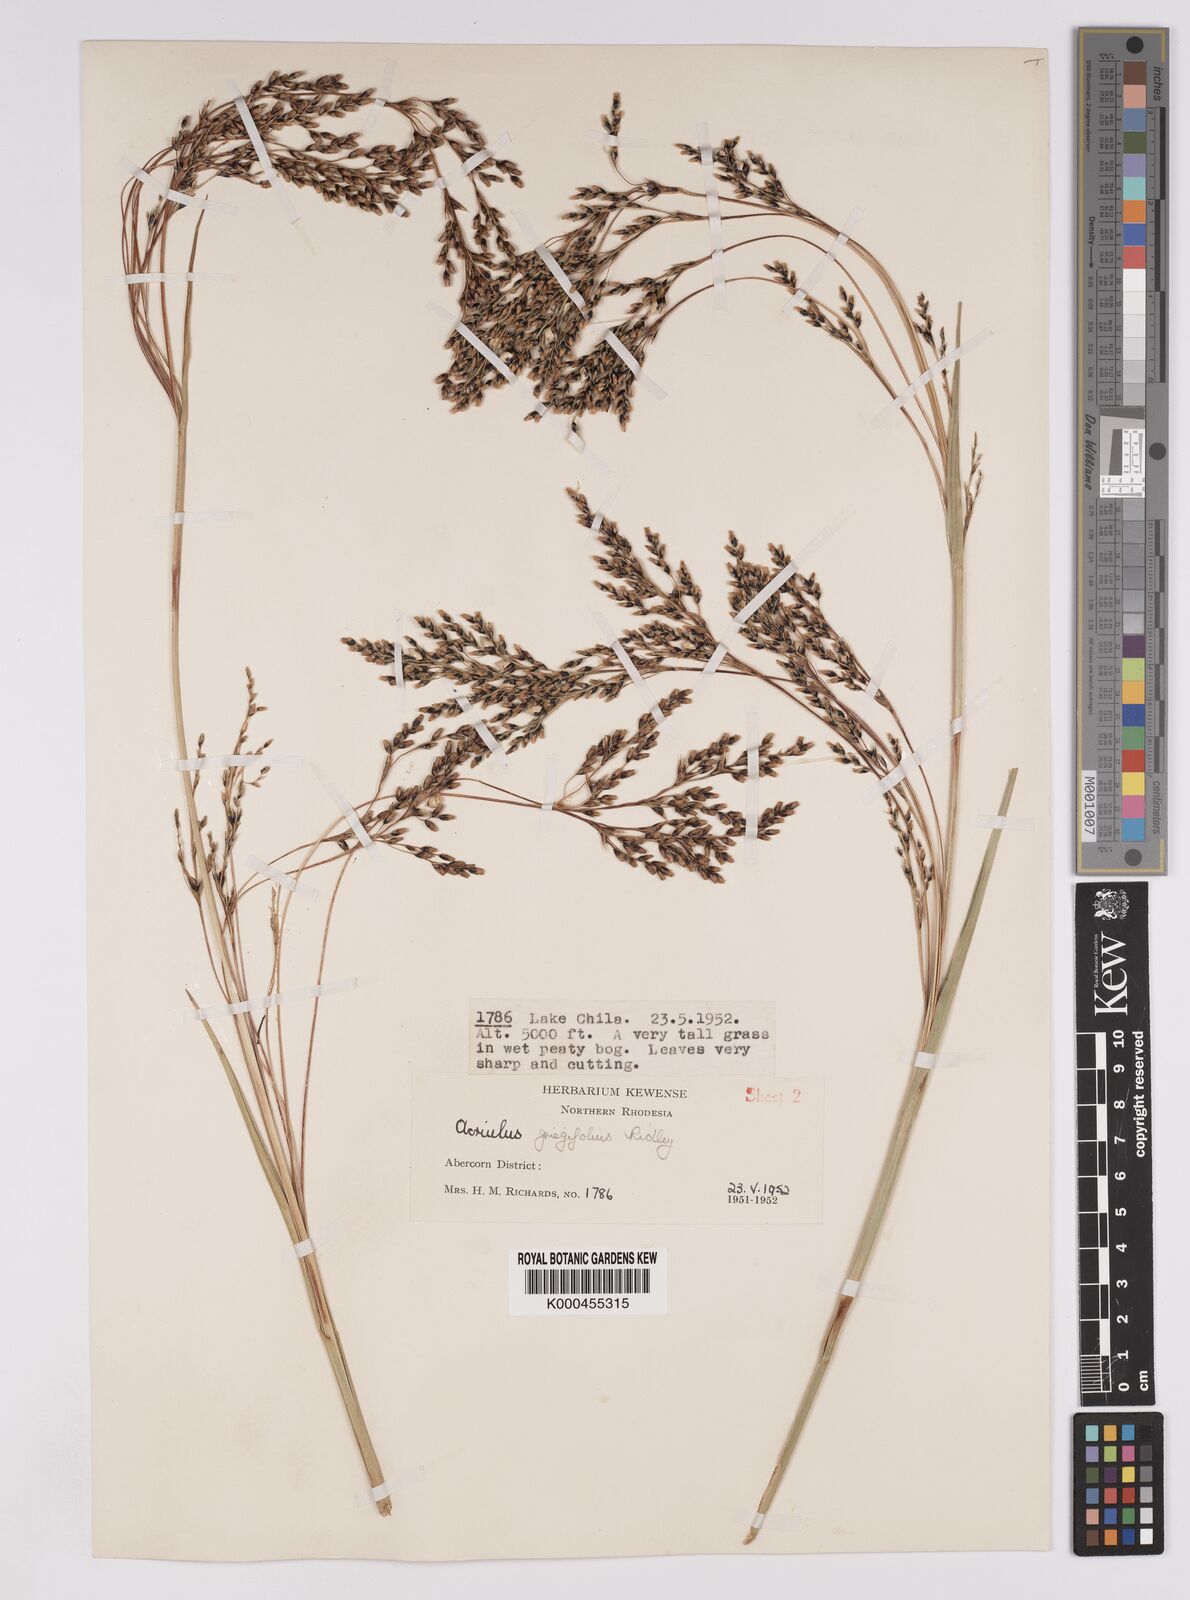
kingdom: Plantae
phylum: Tracheophyta
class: Liliopsida
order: Poales
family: Cyperaceae
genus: Scleria
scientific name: Scleria greigiifolia
